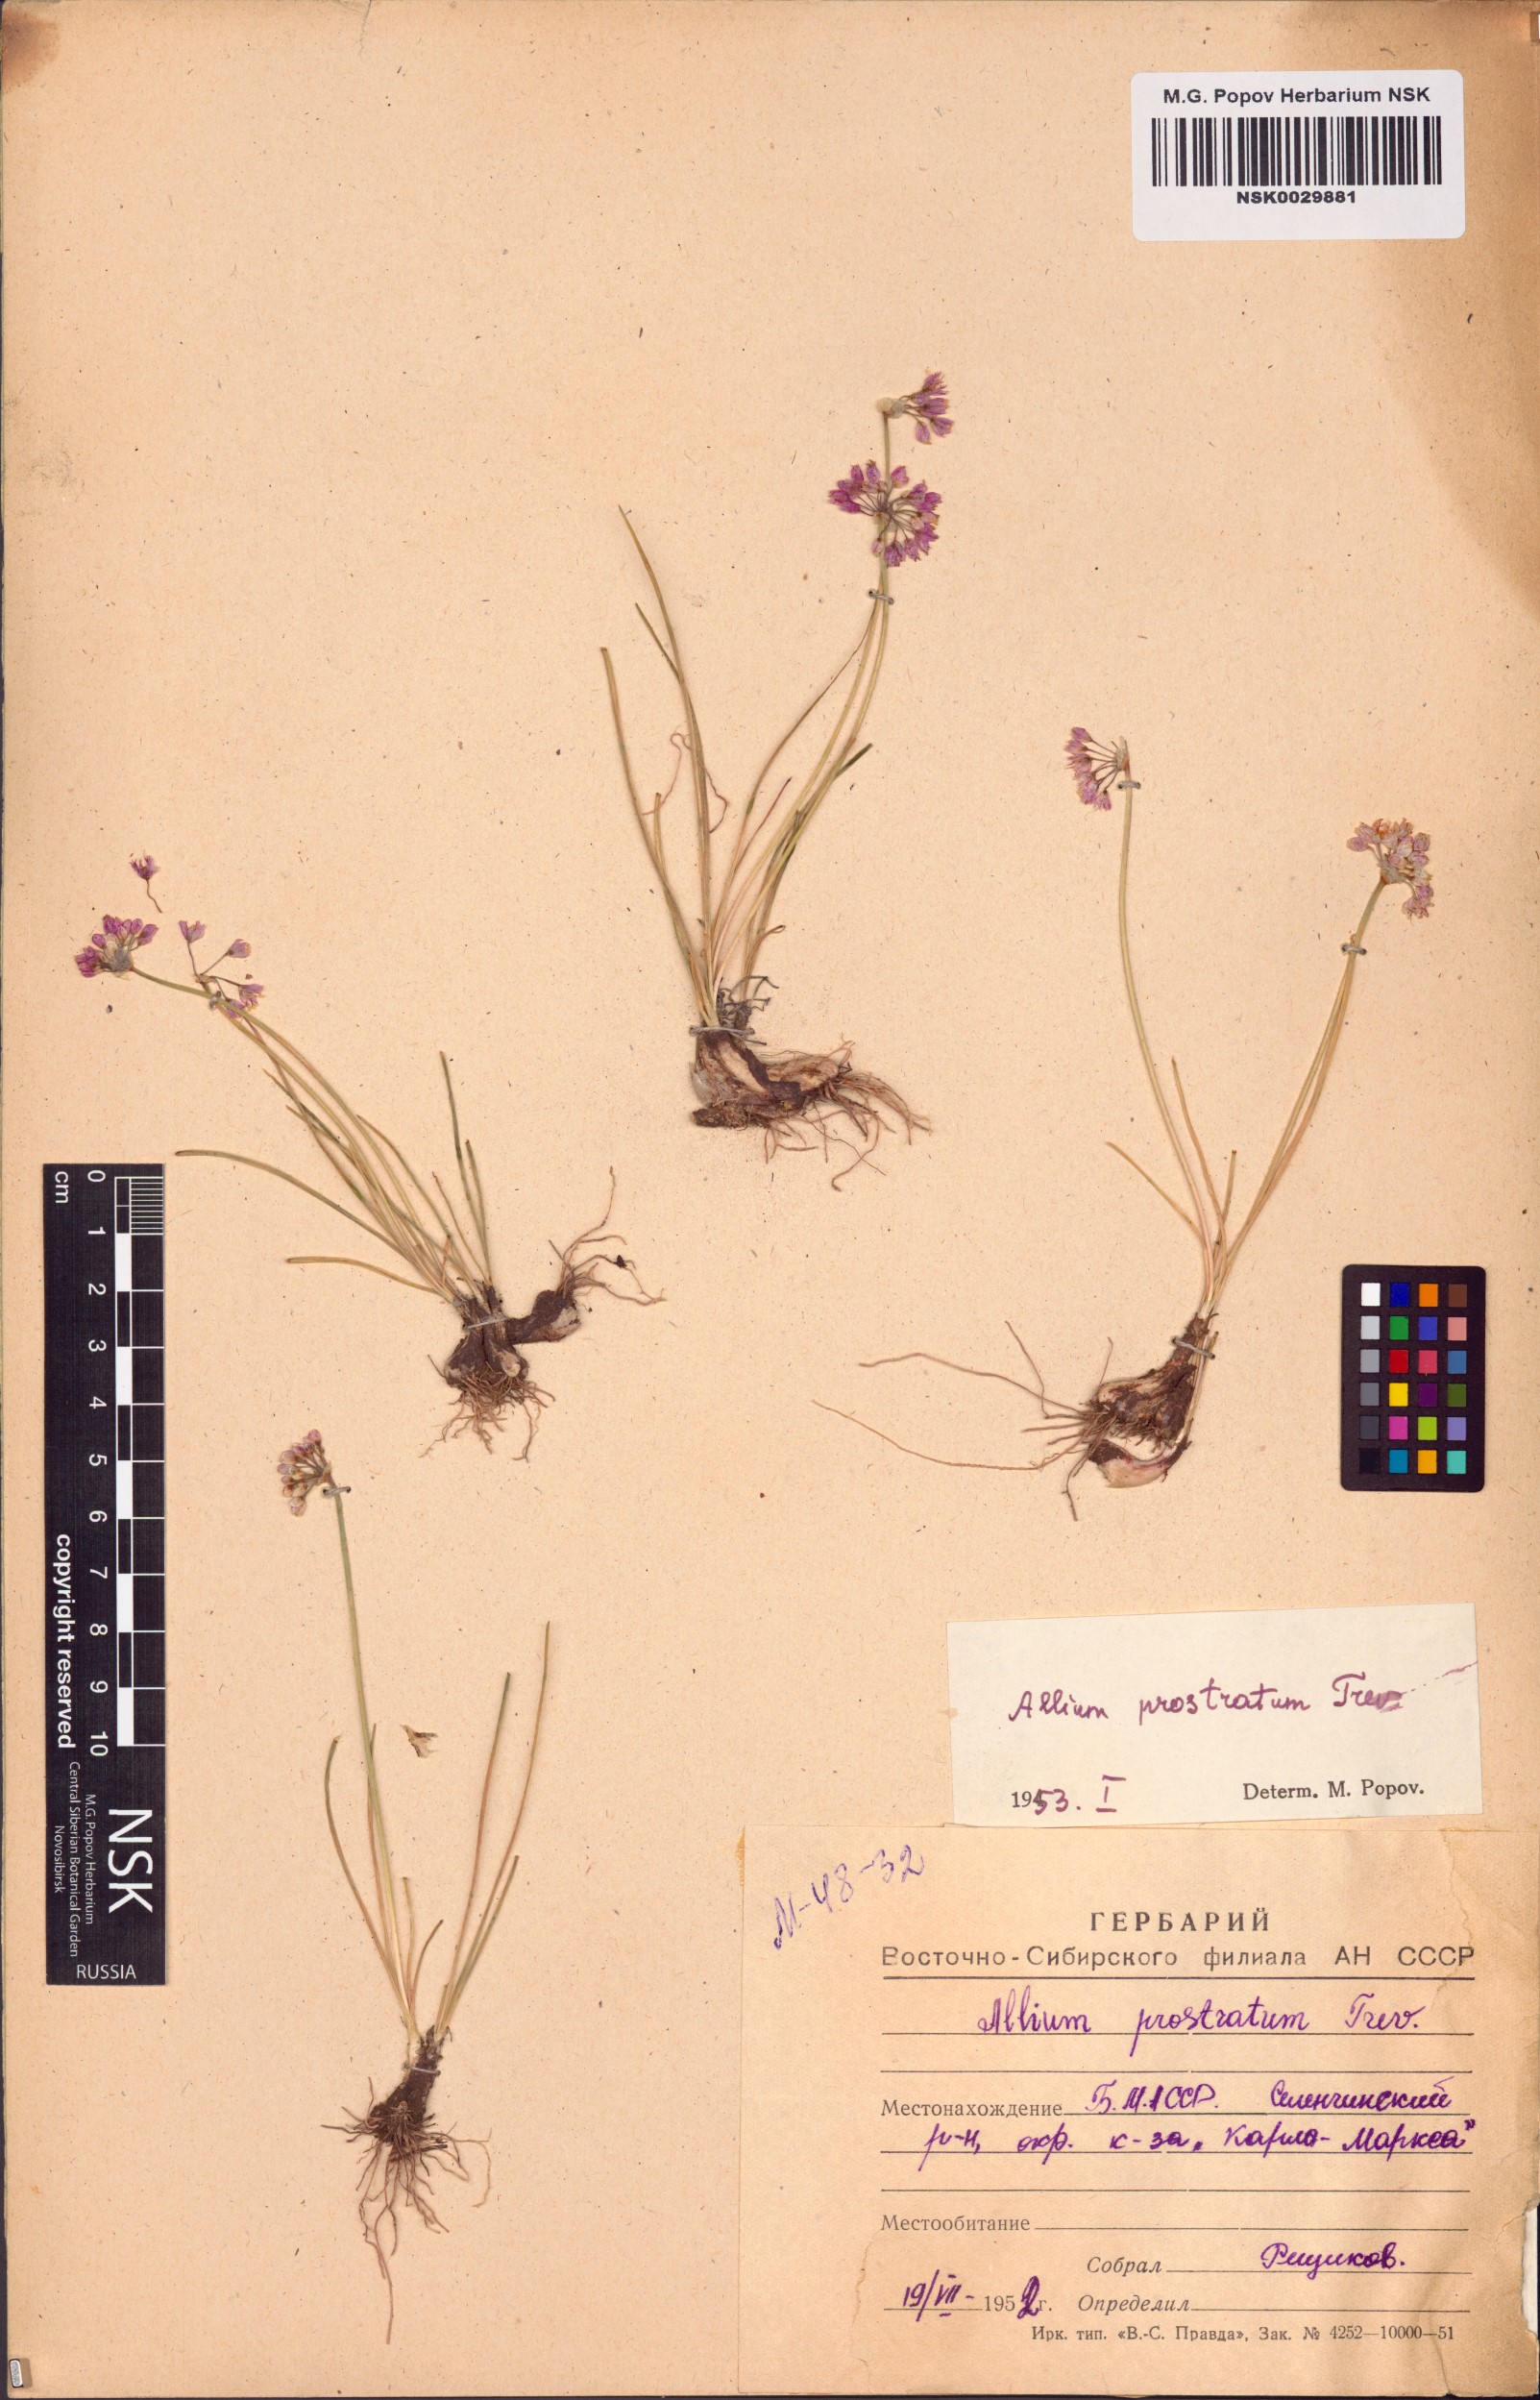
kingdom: Plantae
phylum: Tracheophyta
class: Liliopsida
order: Asparagales
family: Amaryllidaceae
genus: Allium
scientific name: Allium prostratum
